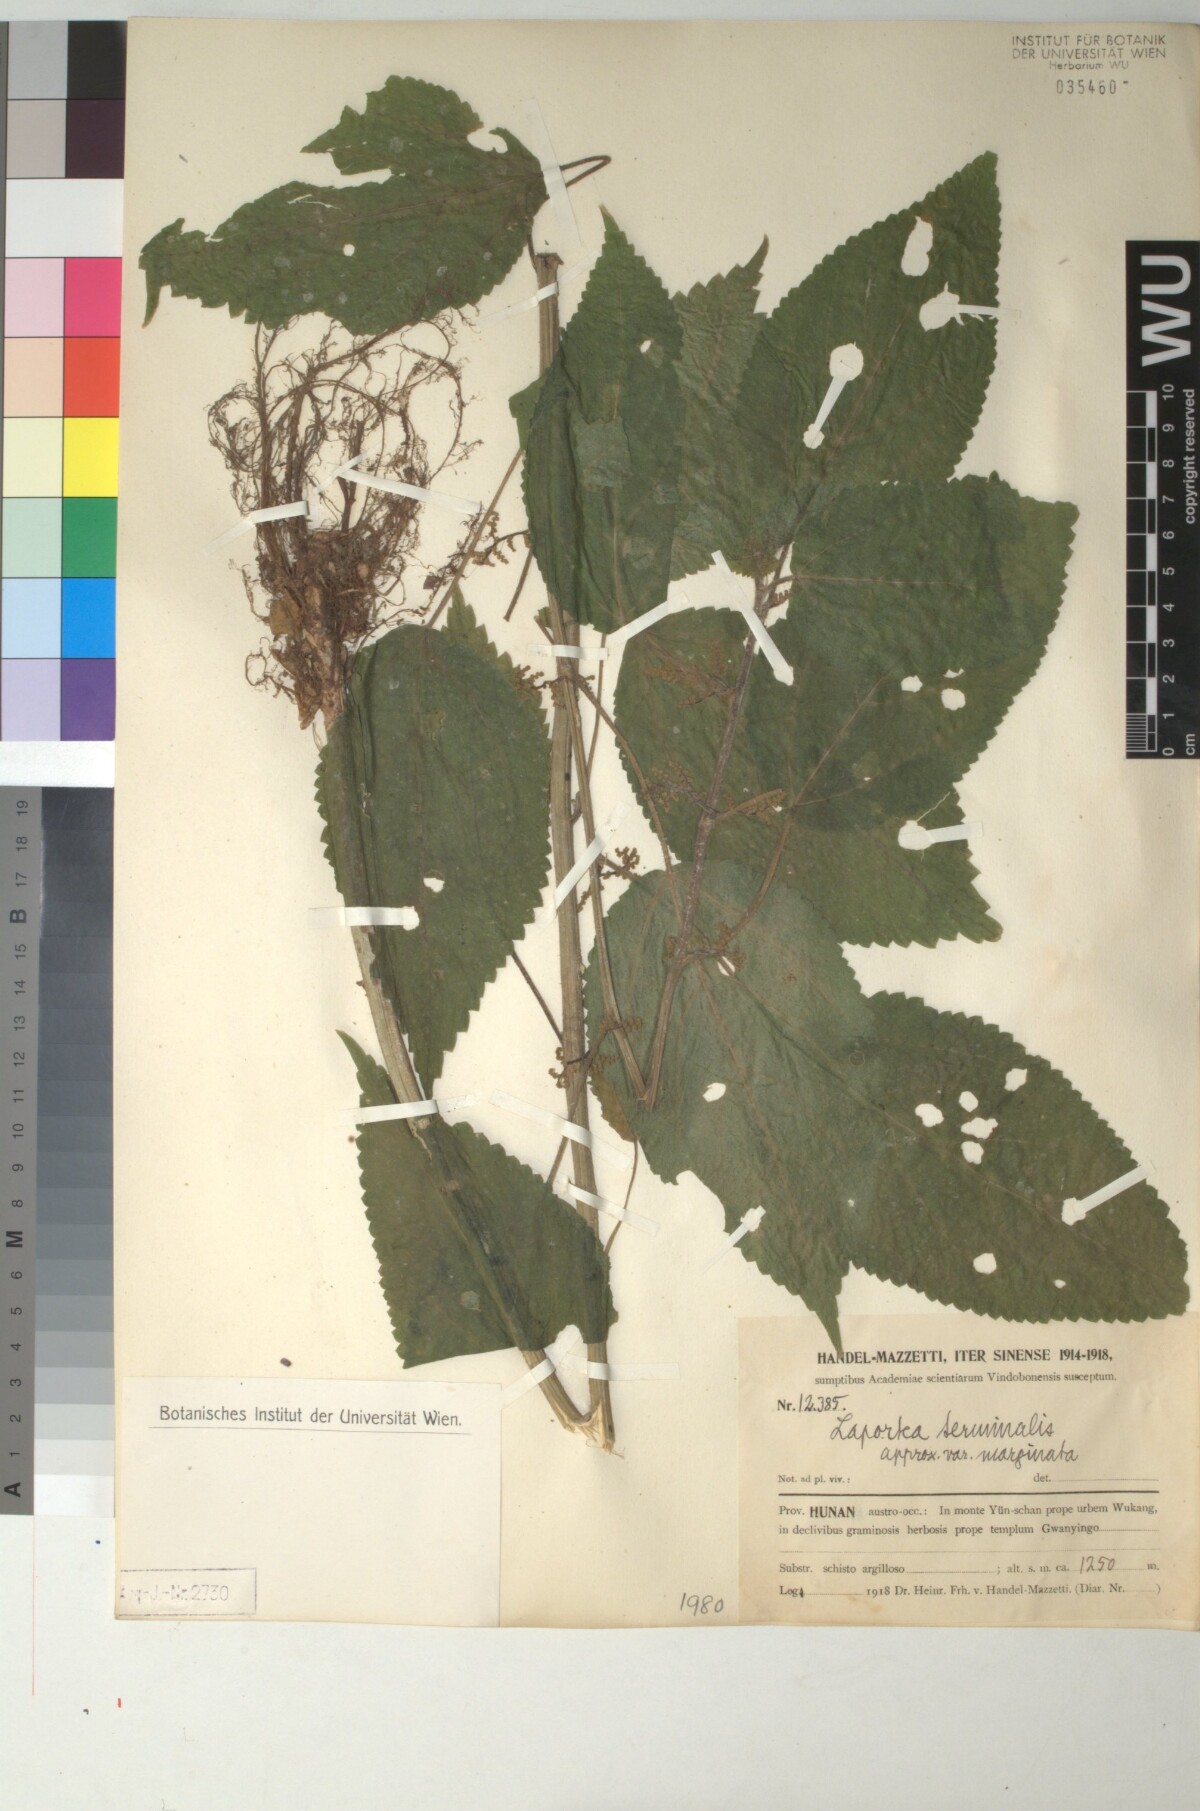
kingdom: Plantae
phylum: Tracheophyta
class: Magnoliopsida
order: Rosales
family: Urticaceae
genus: Laportea
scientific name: Laportea bulbifera
